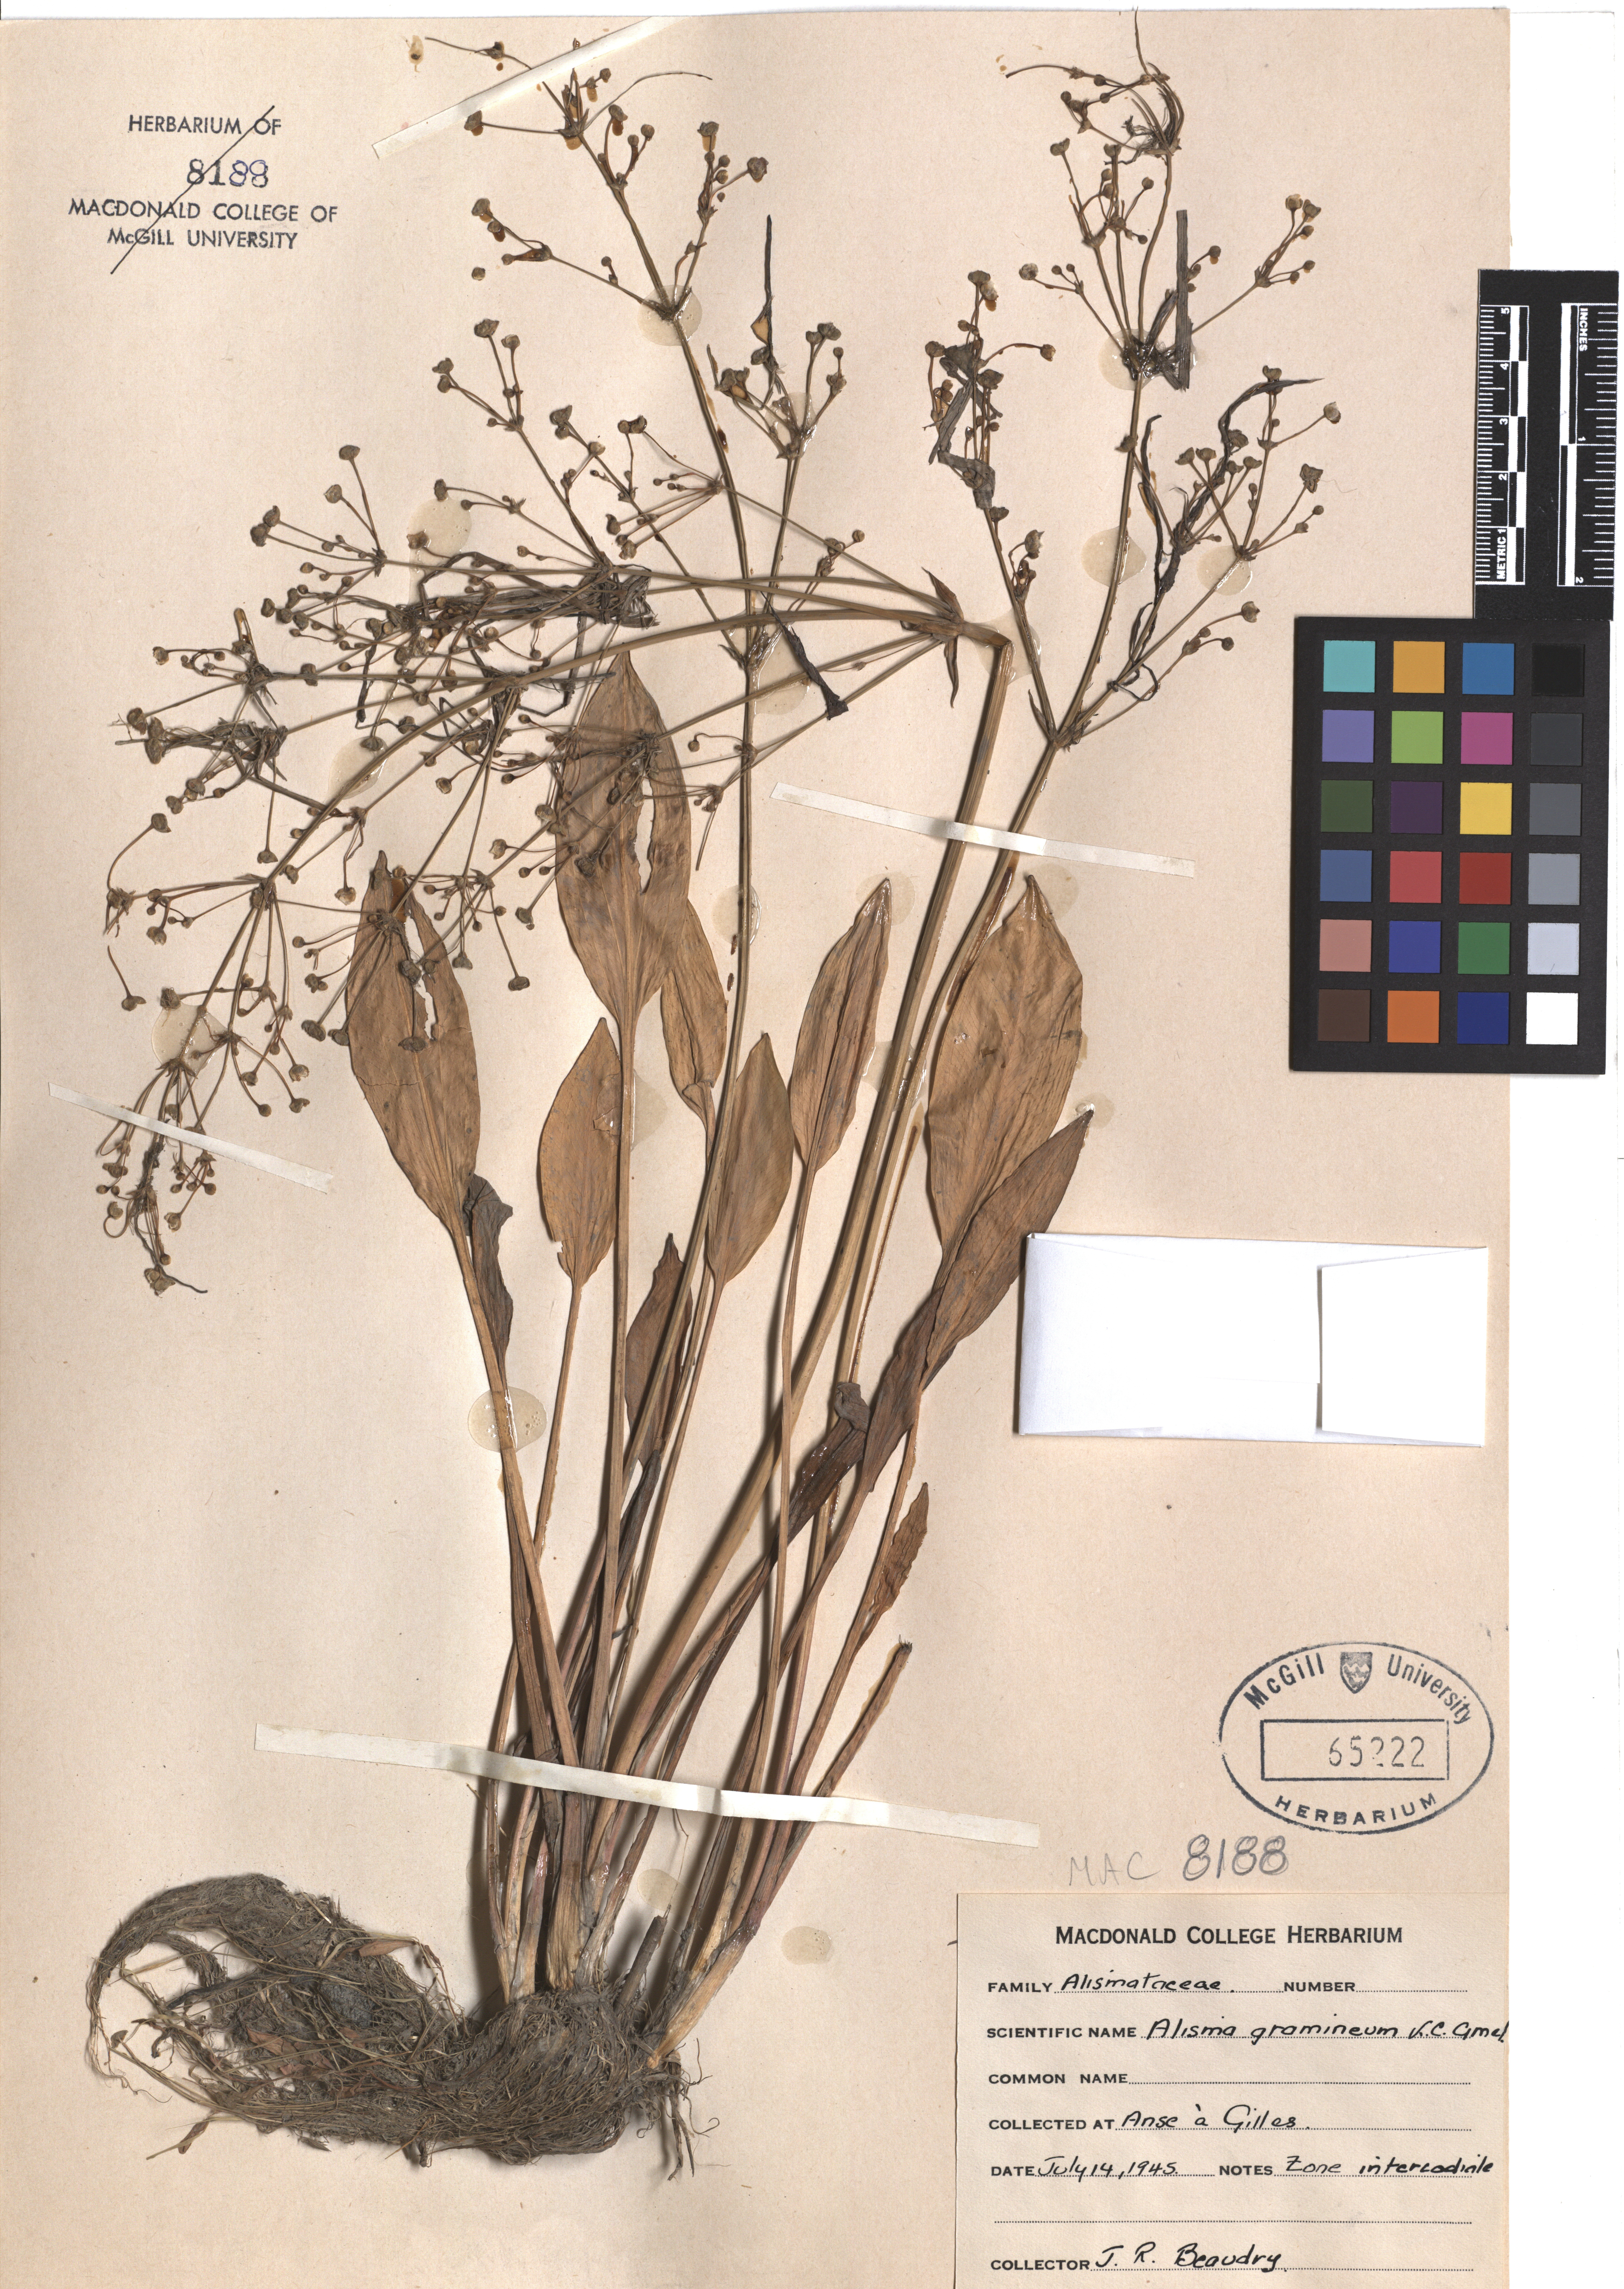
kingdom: Plantae
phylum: Tracheophyta
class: Liliopsida
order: Alismatales
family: Alismataceae
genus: Alisma
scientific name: Alisma gramineum
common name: Ribbon-leaved water-plantain
